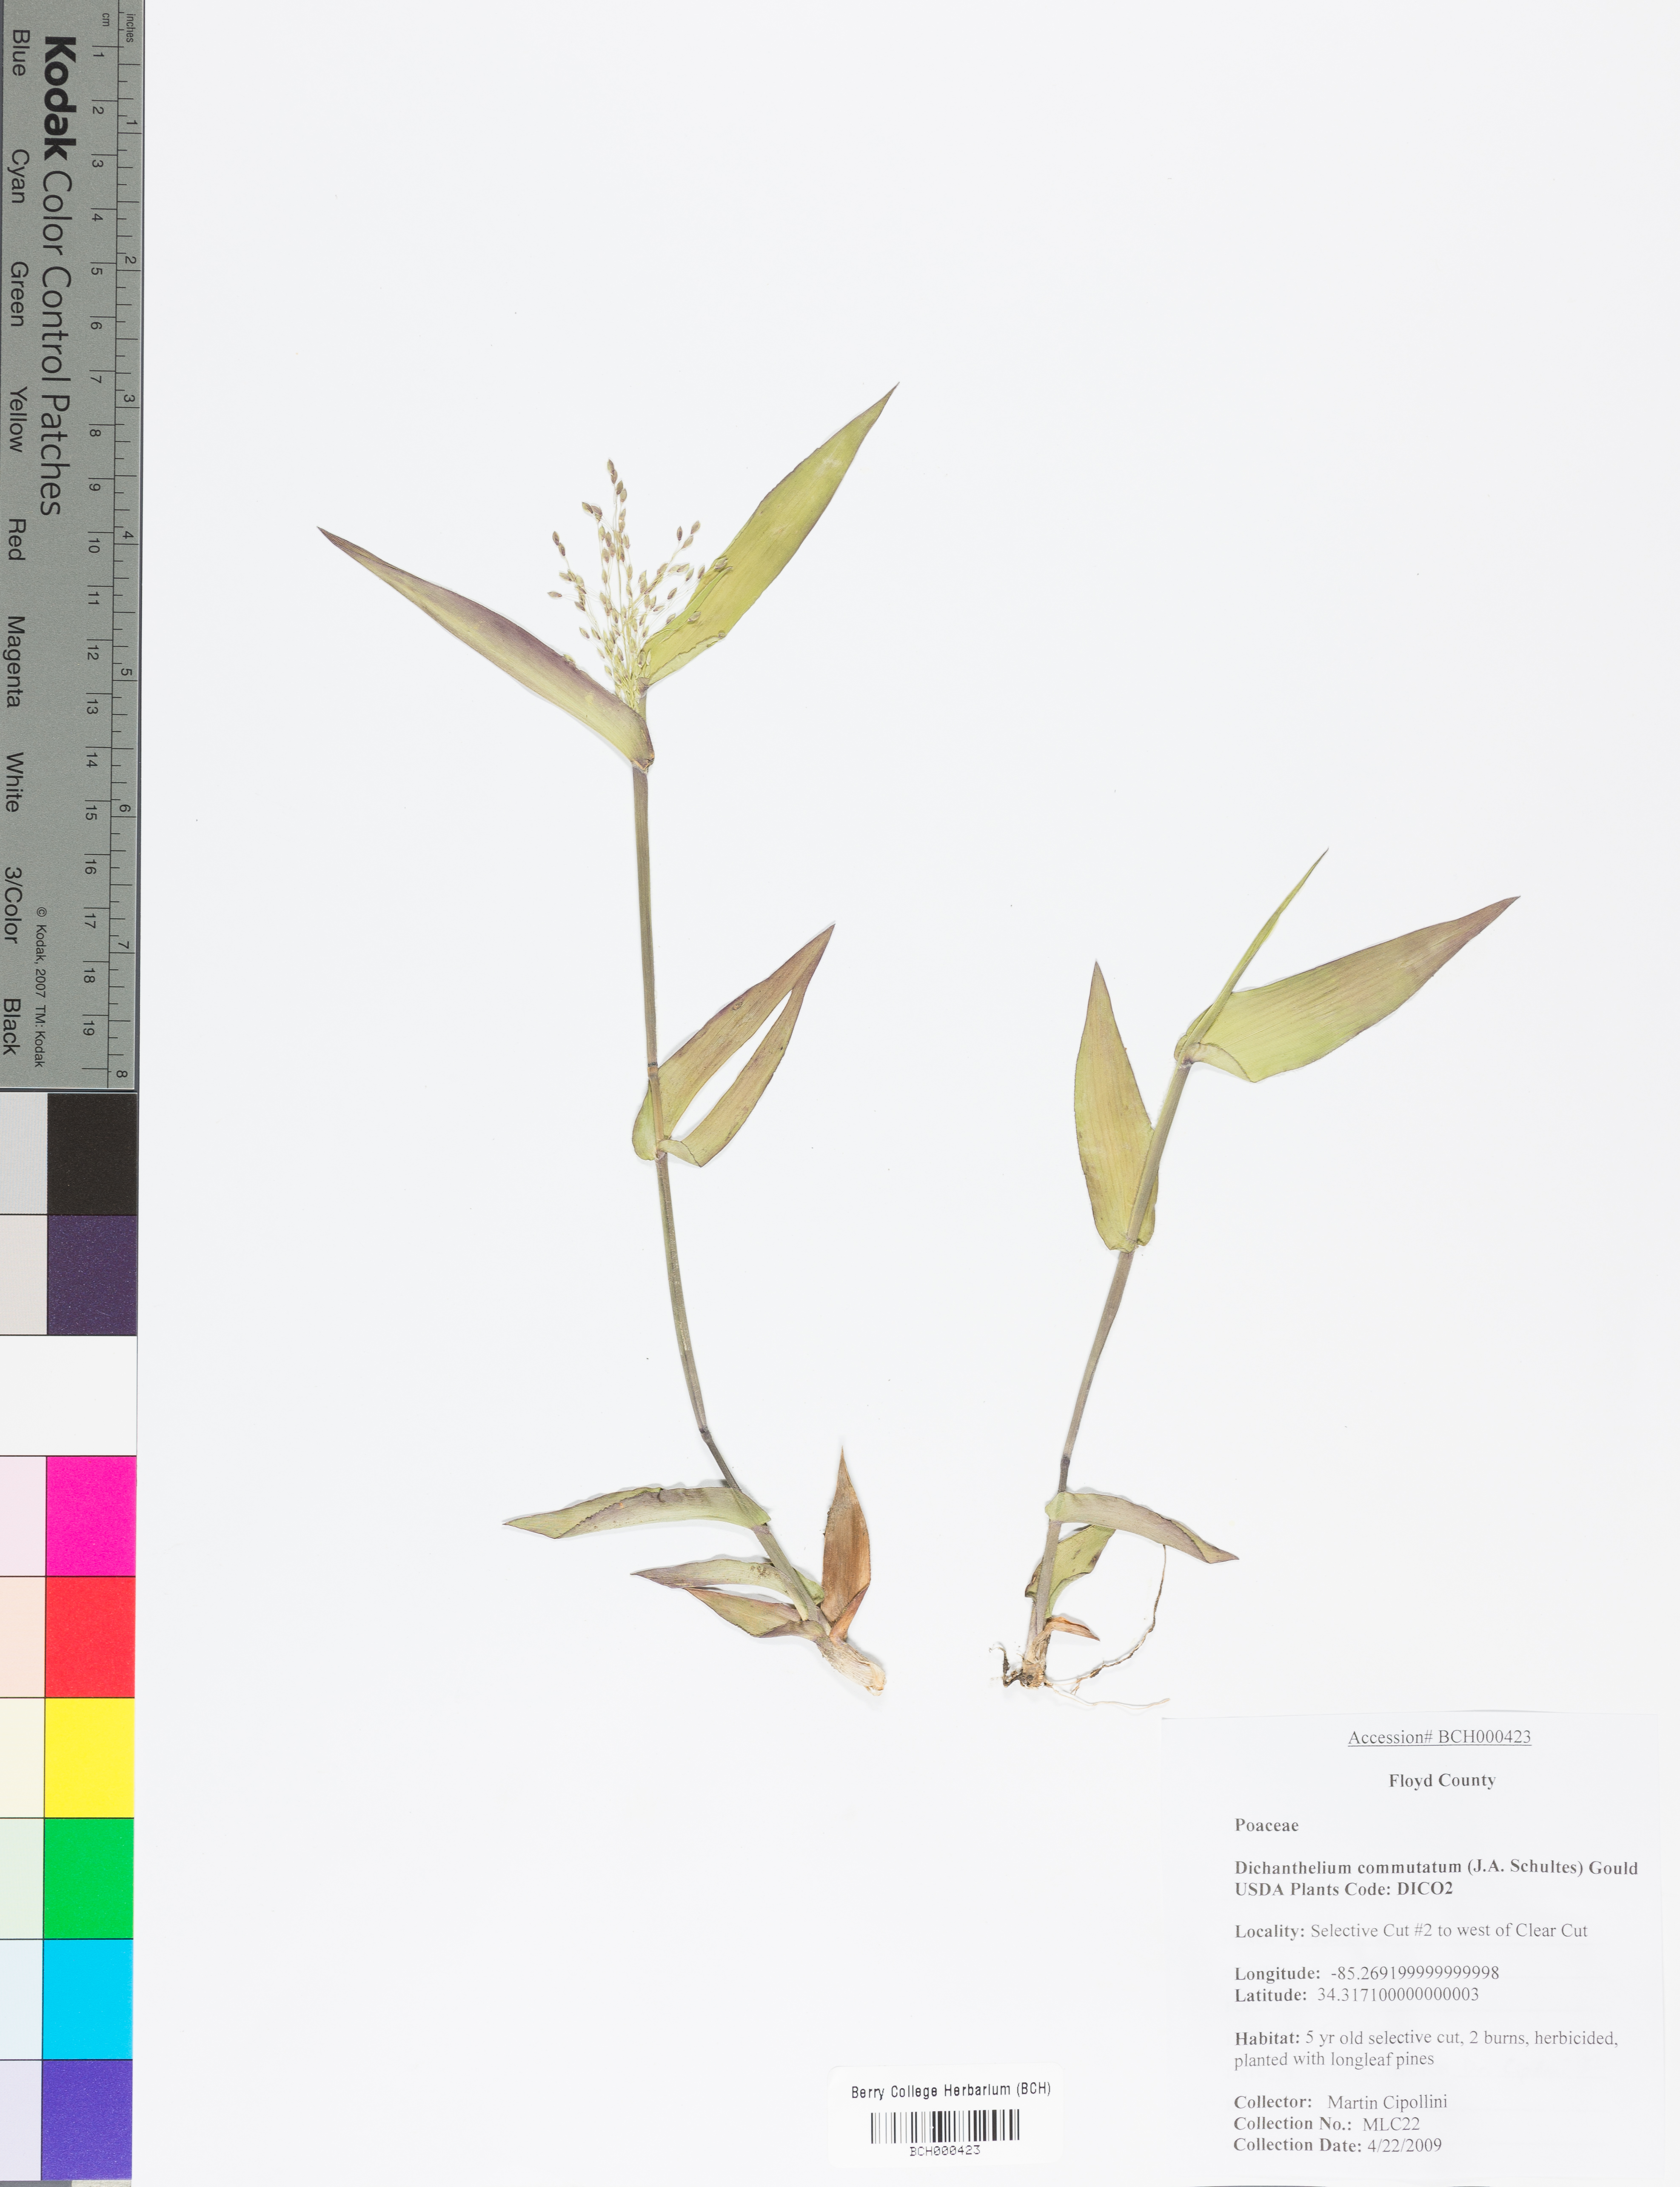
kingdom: Plantae
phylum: Tracheophyta
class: Liliopsida
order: Poales
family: Poaceae
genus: Dichanthelium
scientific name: Dichanthelium commutatum
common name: Variable witchgrass
